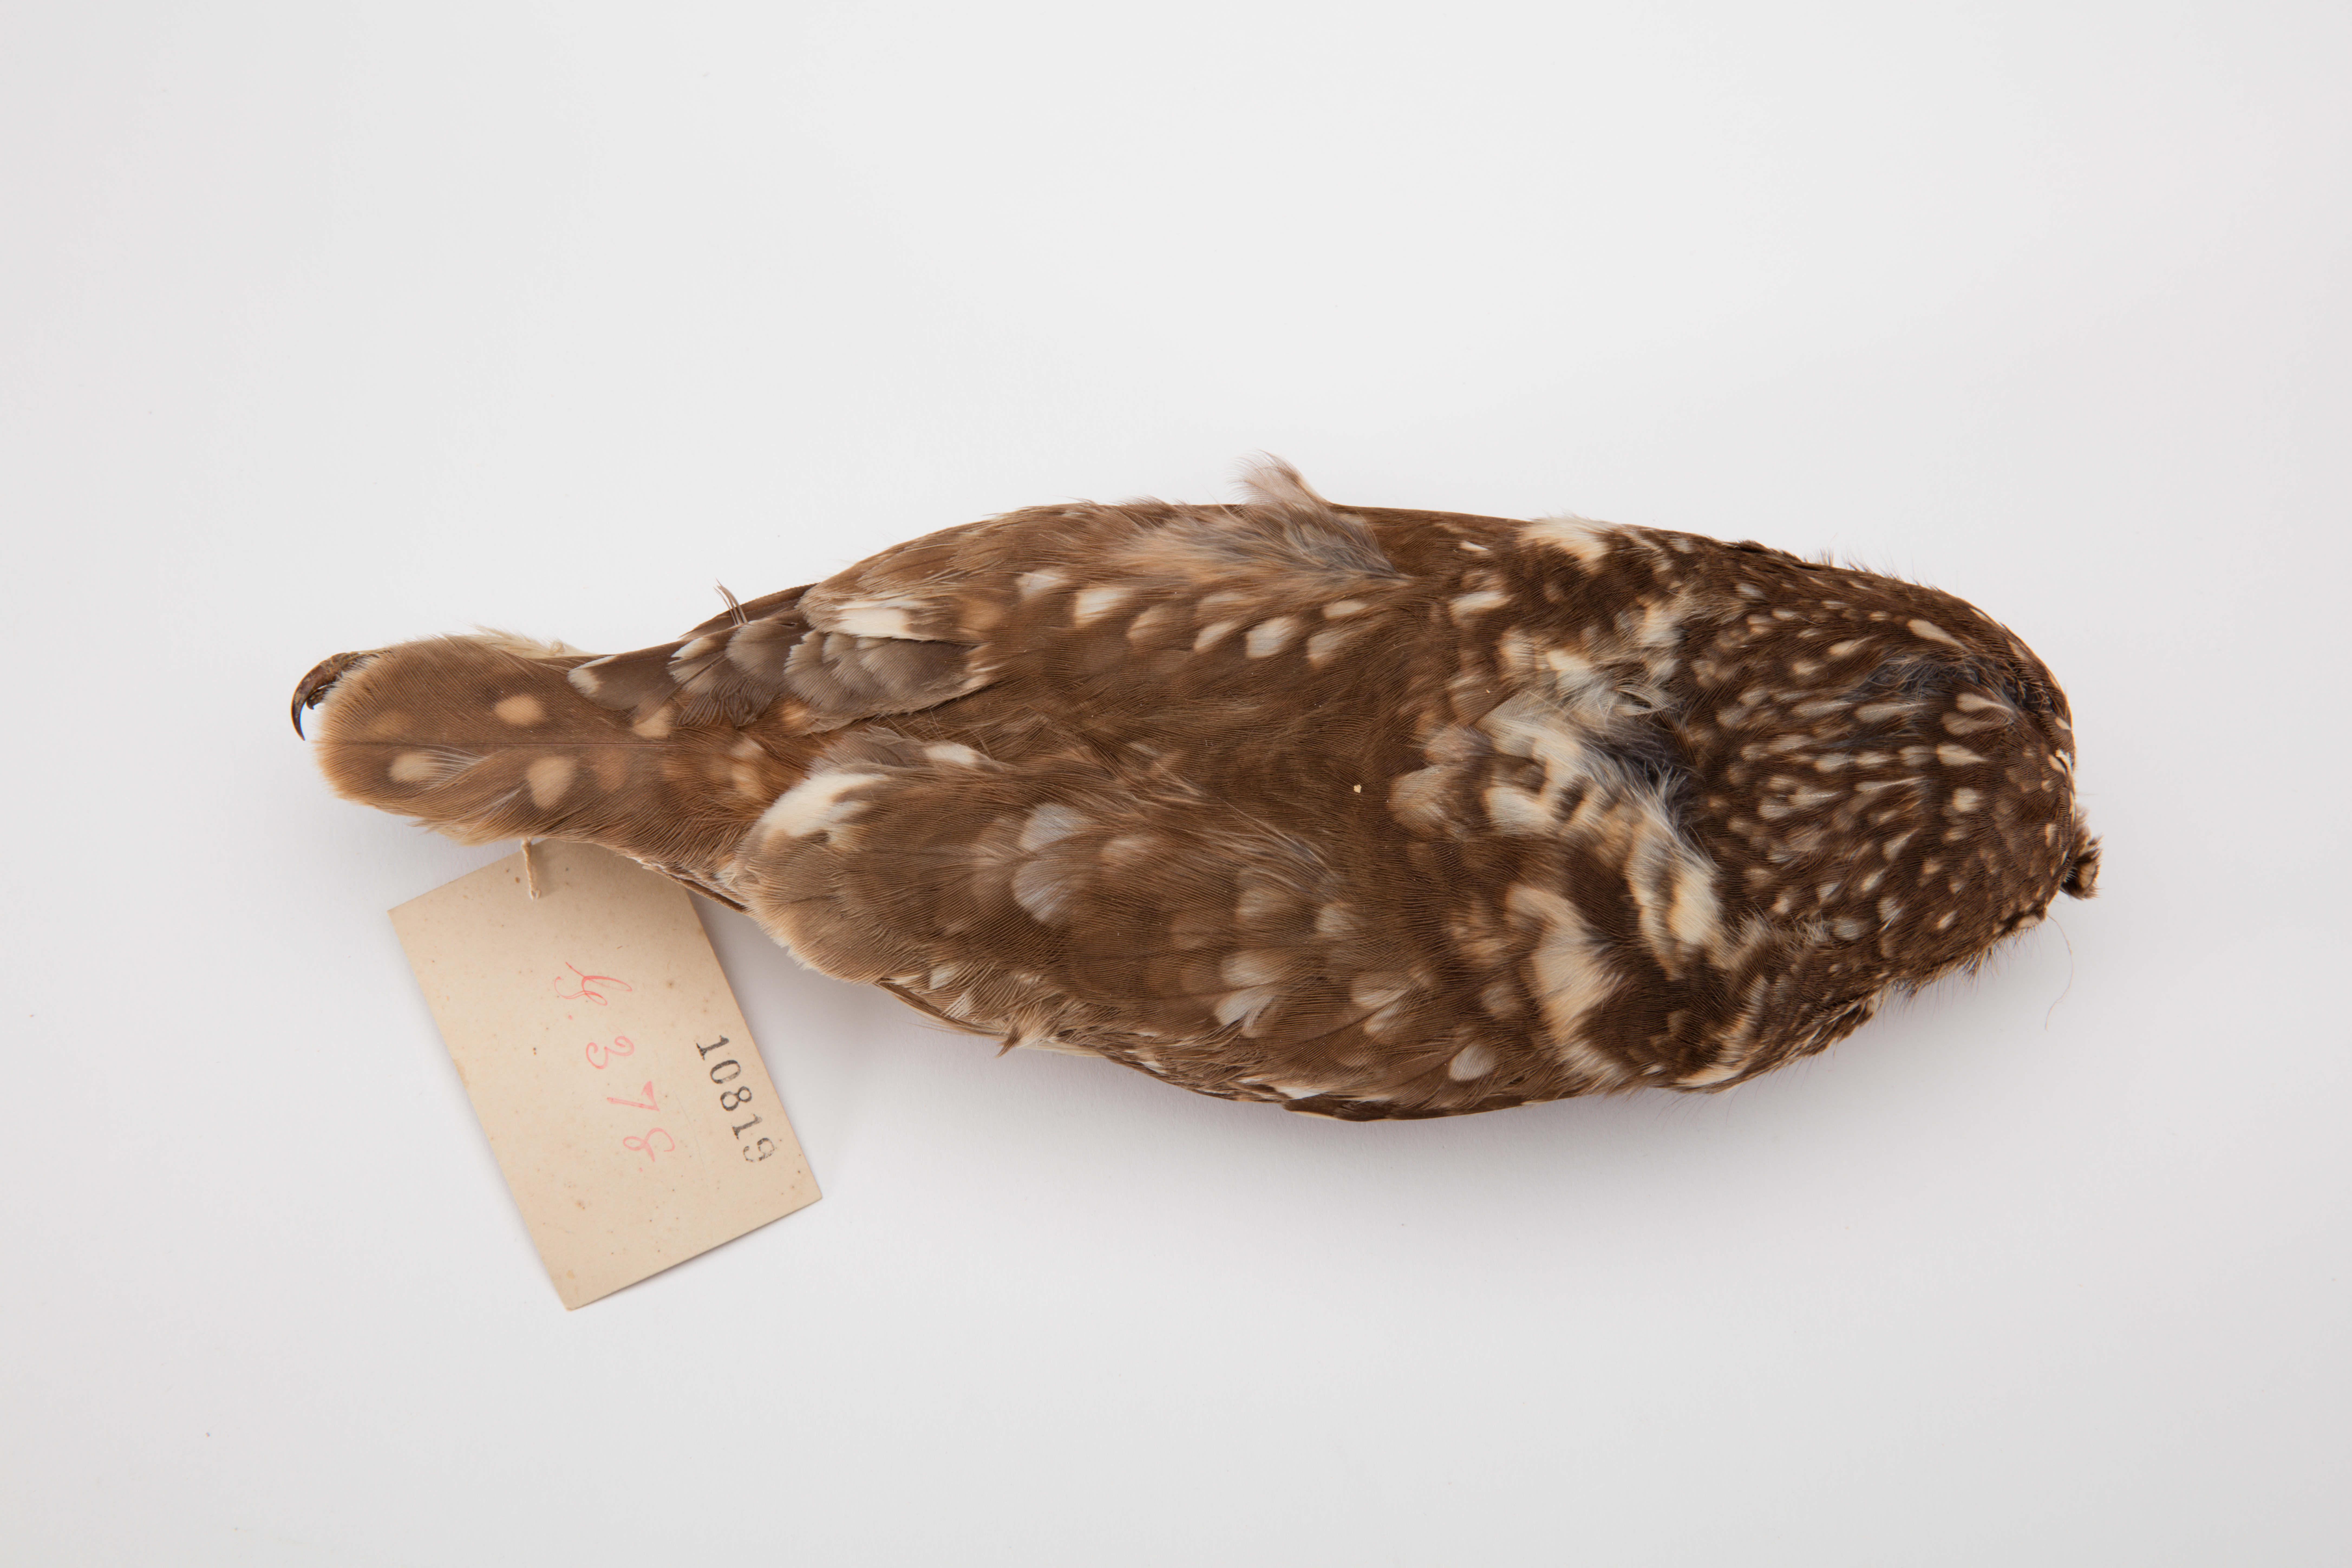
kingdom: Animalia
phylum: Chordata
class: Aves
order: Strigiformes
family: Strigidae
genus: Athene
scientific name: Athene noctua
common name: Little owl
